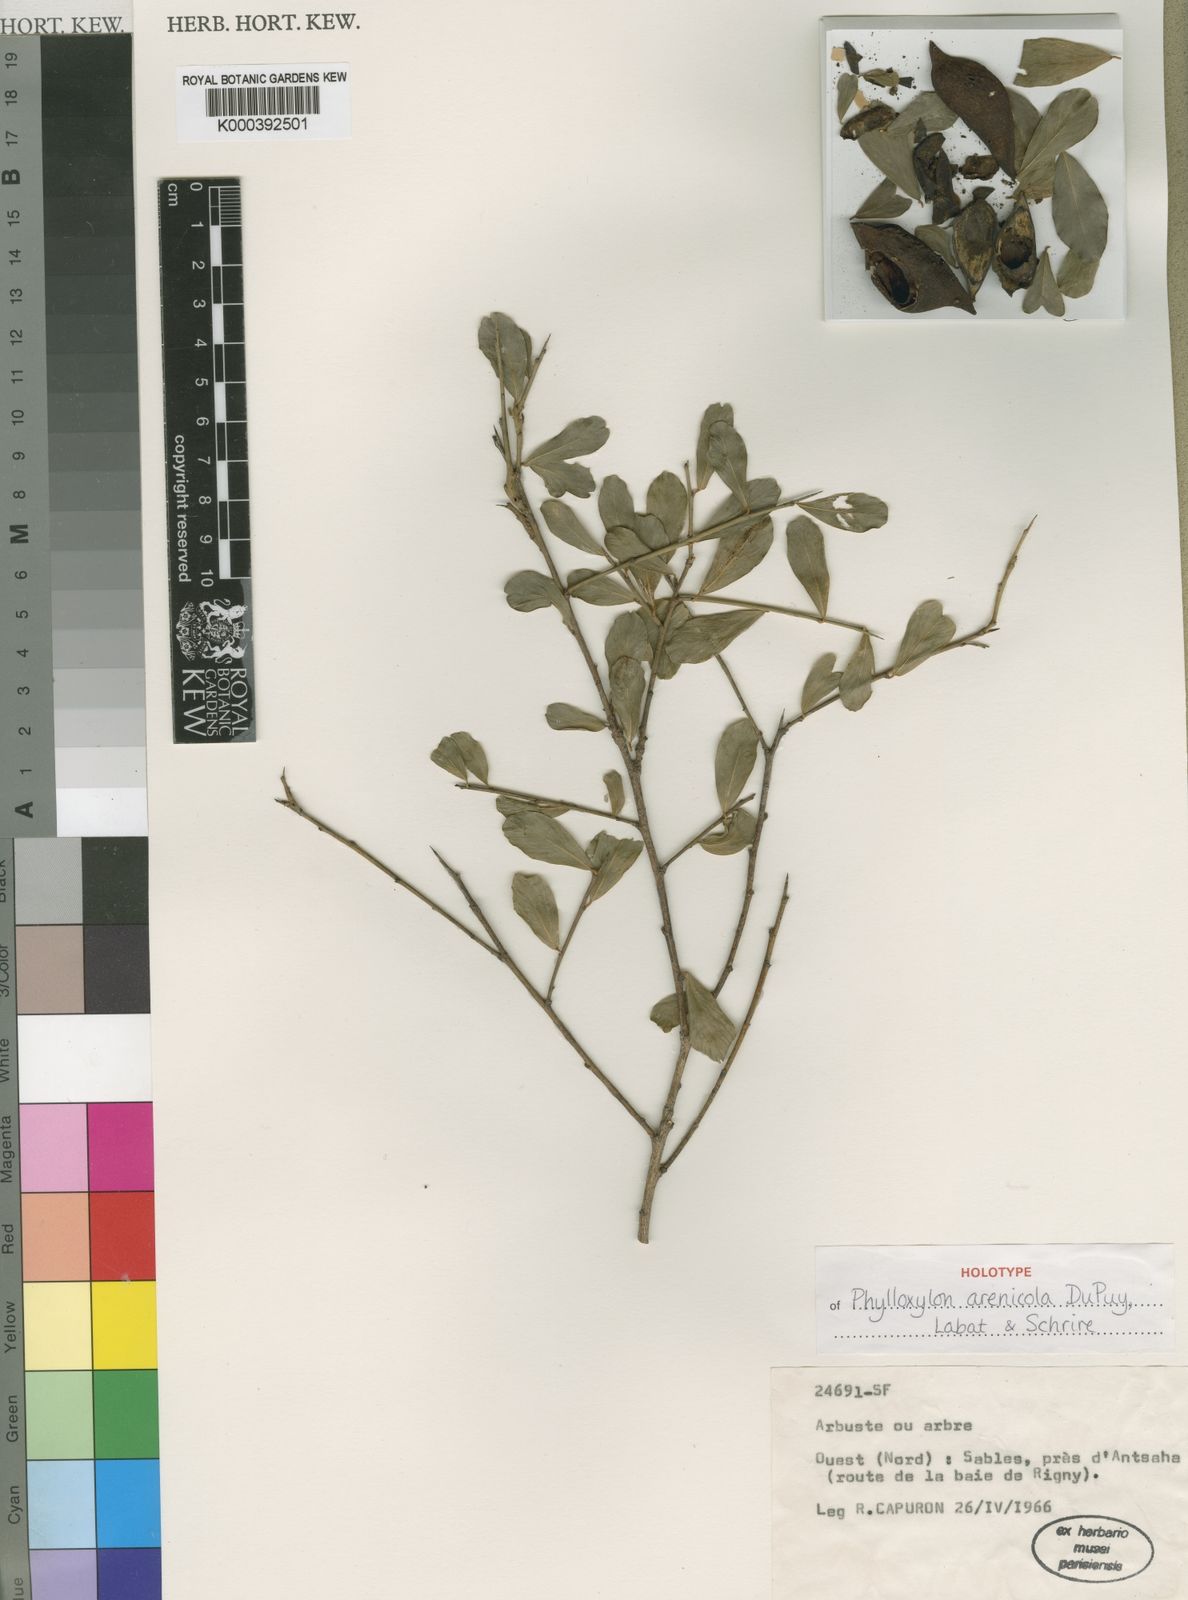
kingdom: Plantae
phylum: Tracheophyta
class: Magnoliopsida
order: Fabales
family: Fabaceae
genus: Phylloxylon
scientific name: Phylloxylon arenicola
